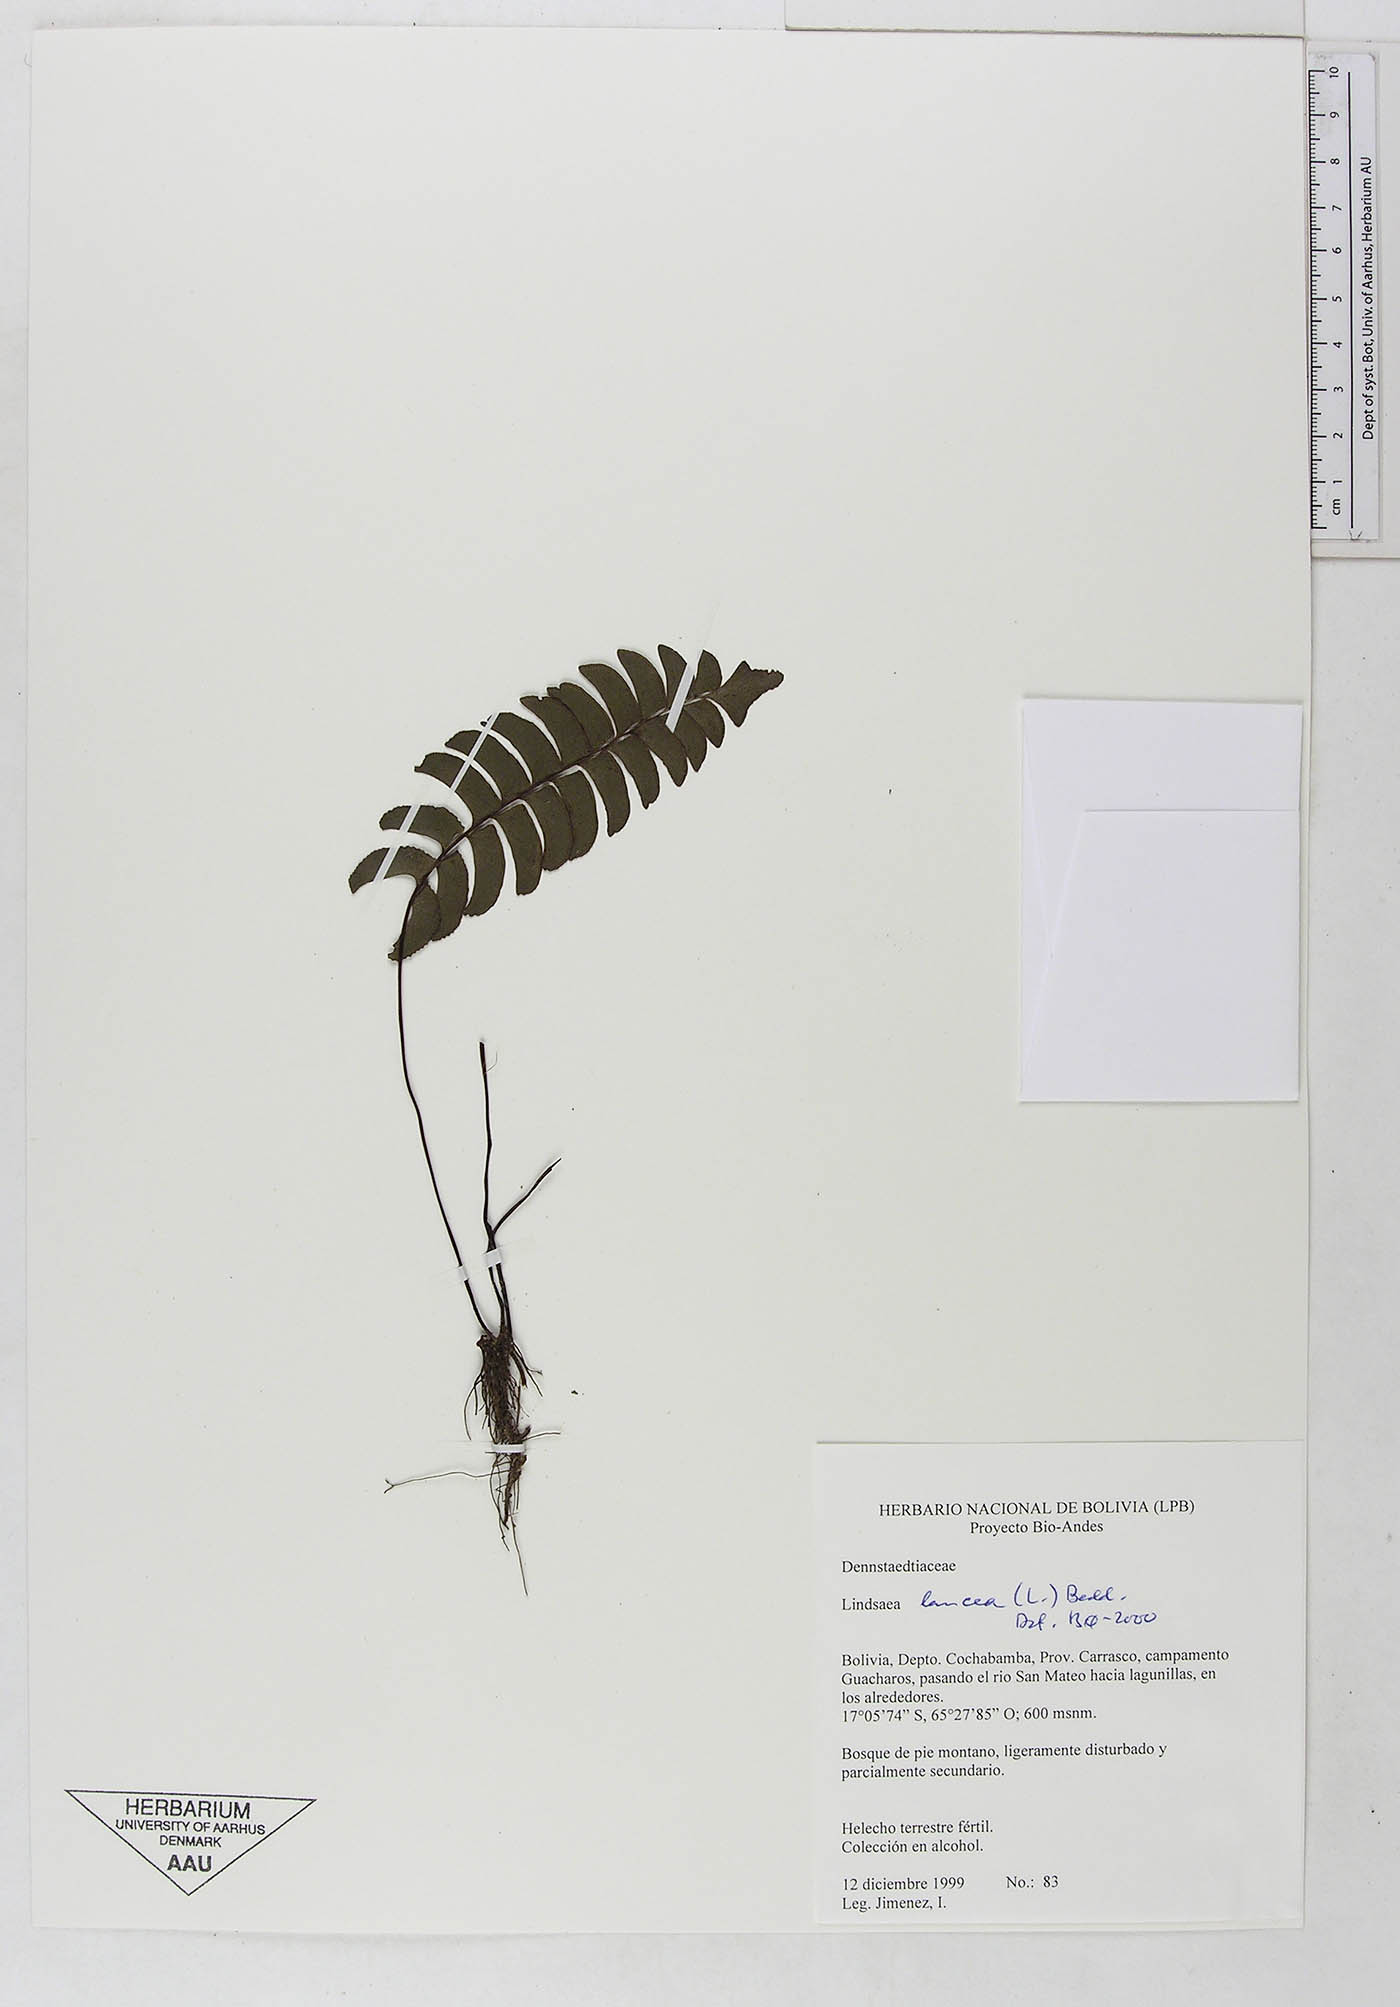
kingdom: Plantae
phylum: Tracheophyta
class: Polypodiopsida
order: Polypodiales
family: Dennstaedtiaceae
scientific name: Dennstaedtiaceae
